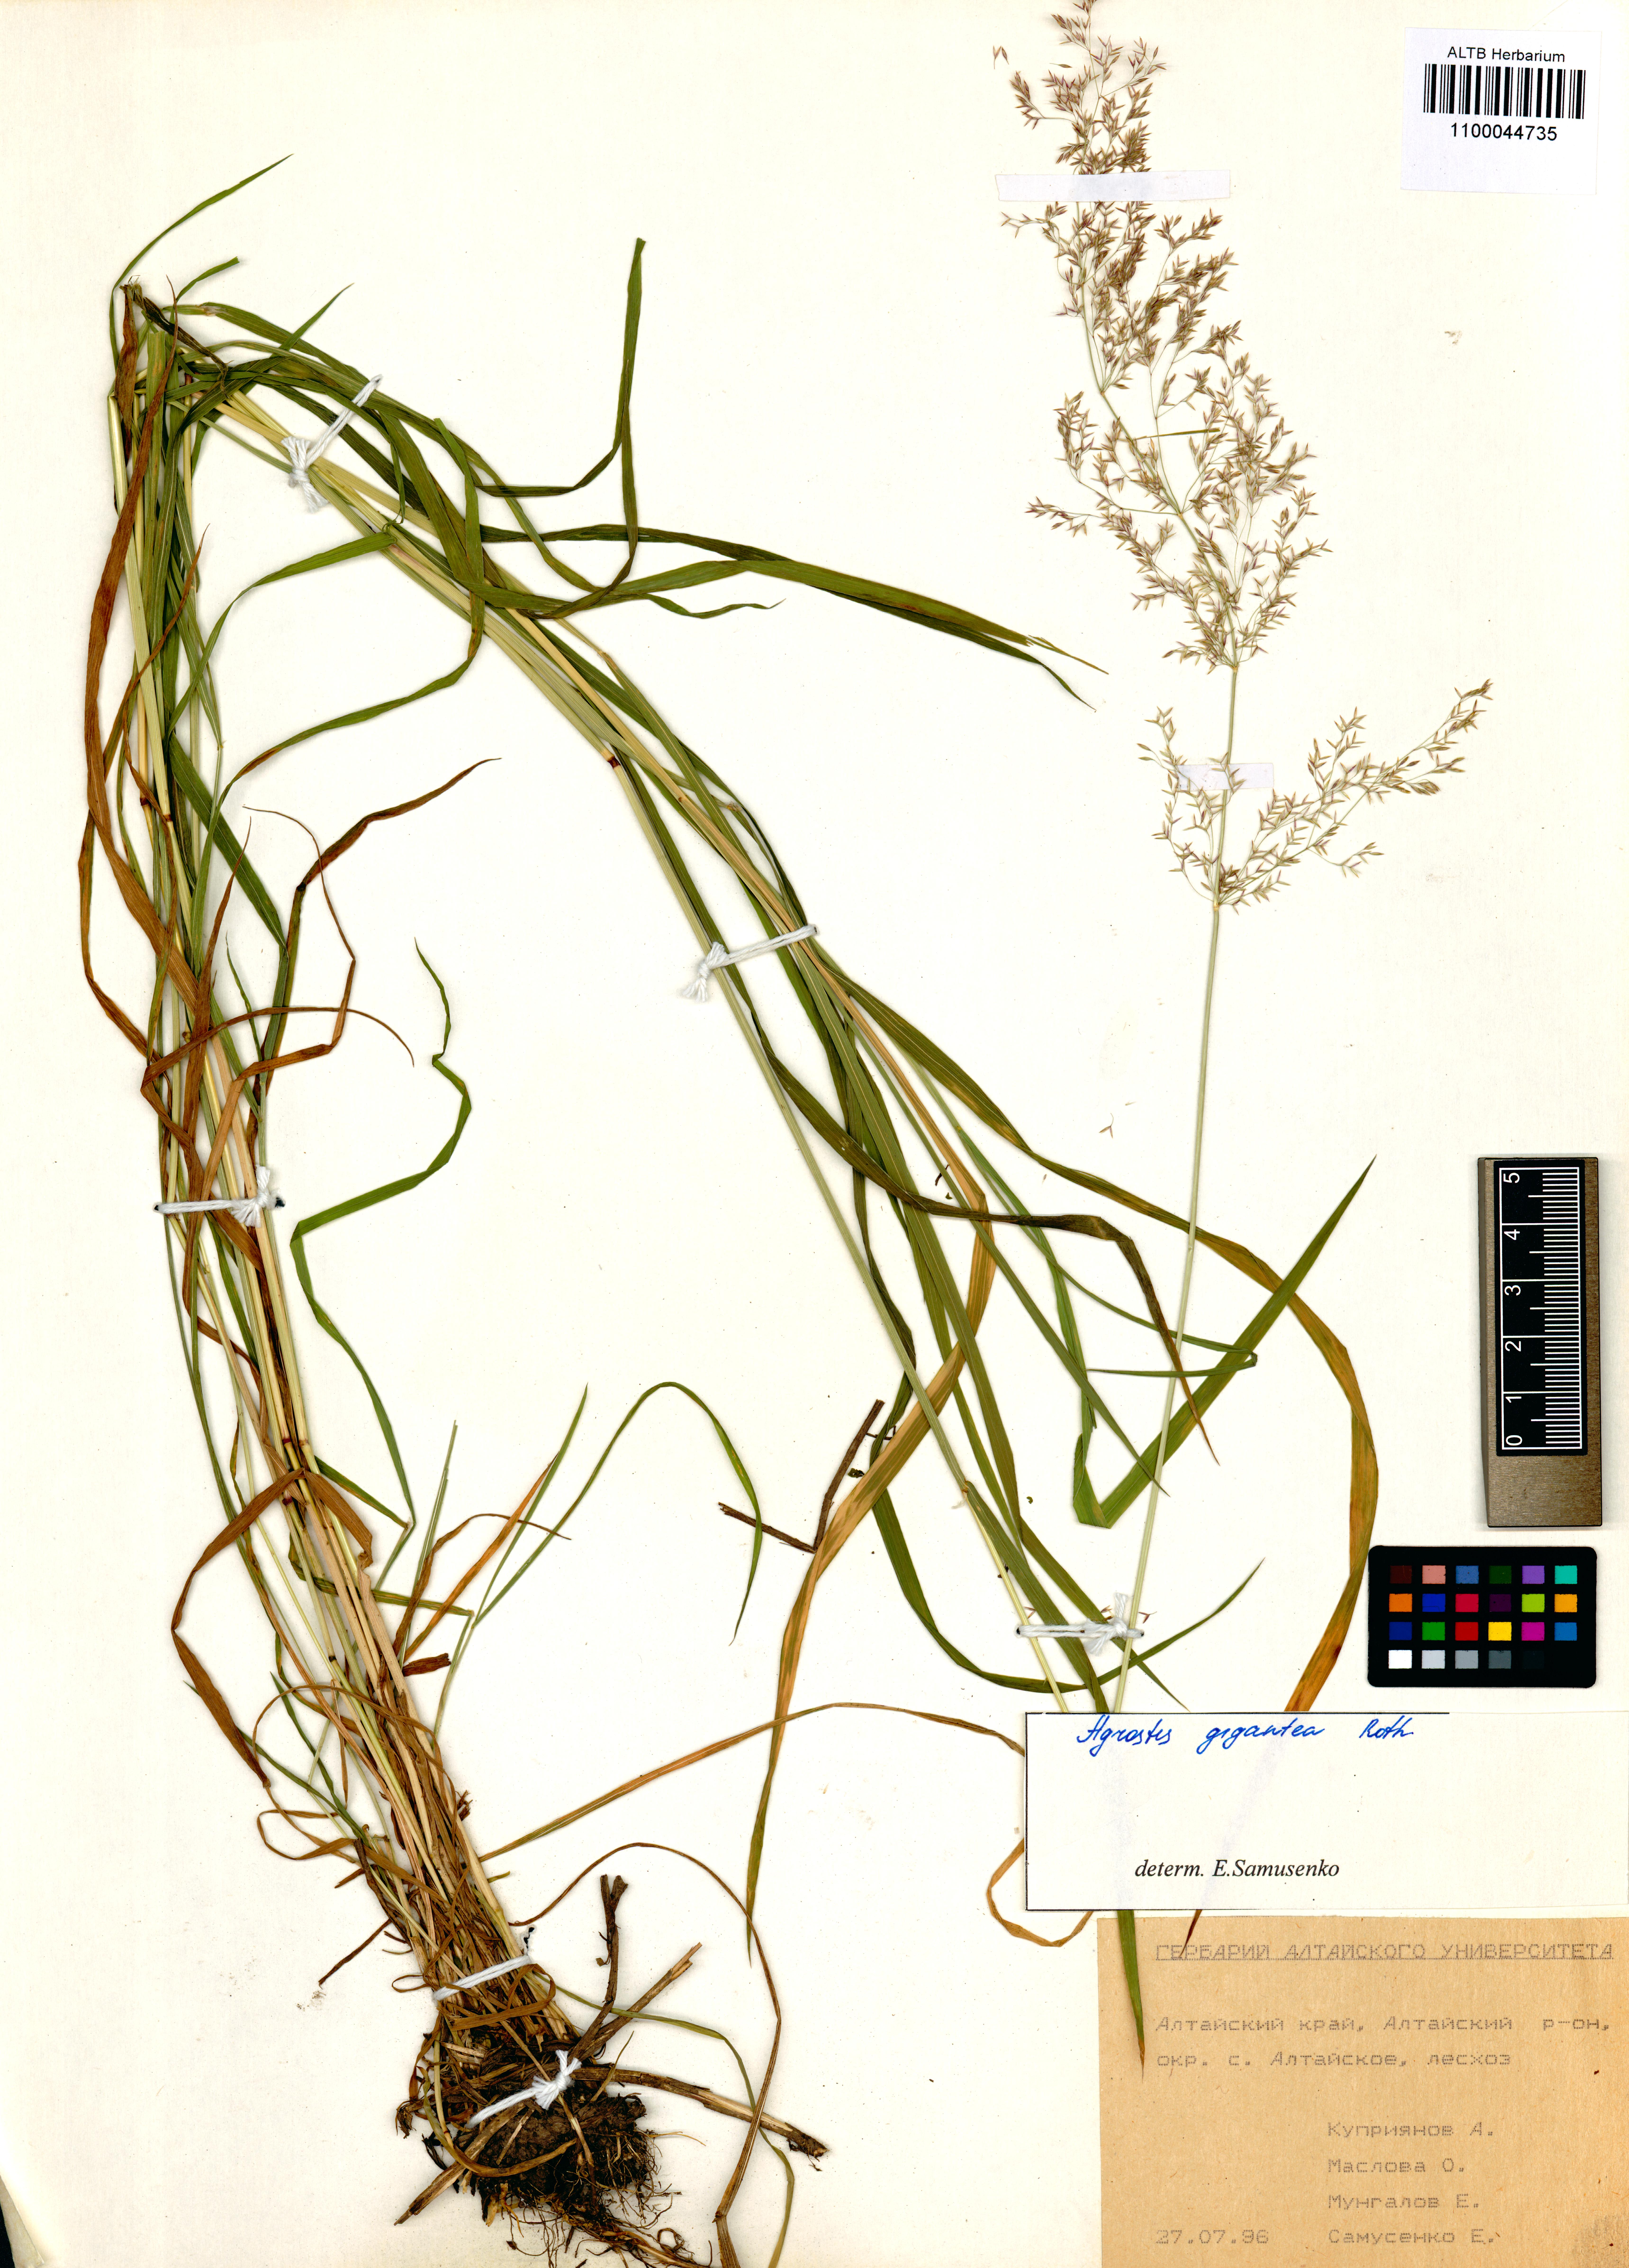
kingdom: Plantae
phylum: Tracheophyta
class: Liliopsida
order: Poales
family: Poaceae
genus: Agrostis
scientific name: Agrostis gigantea
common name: Black bent
